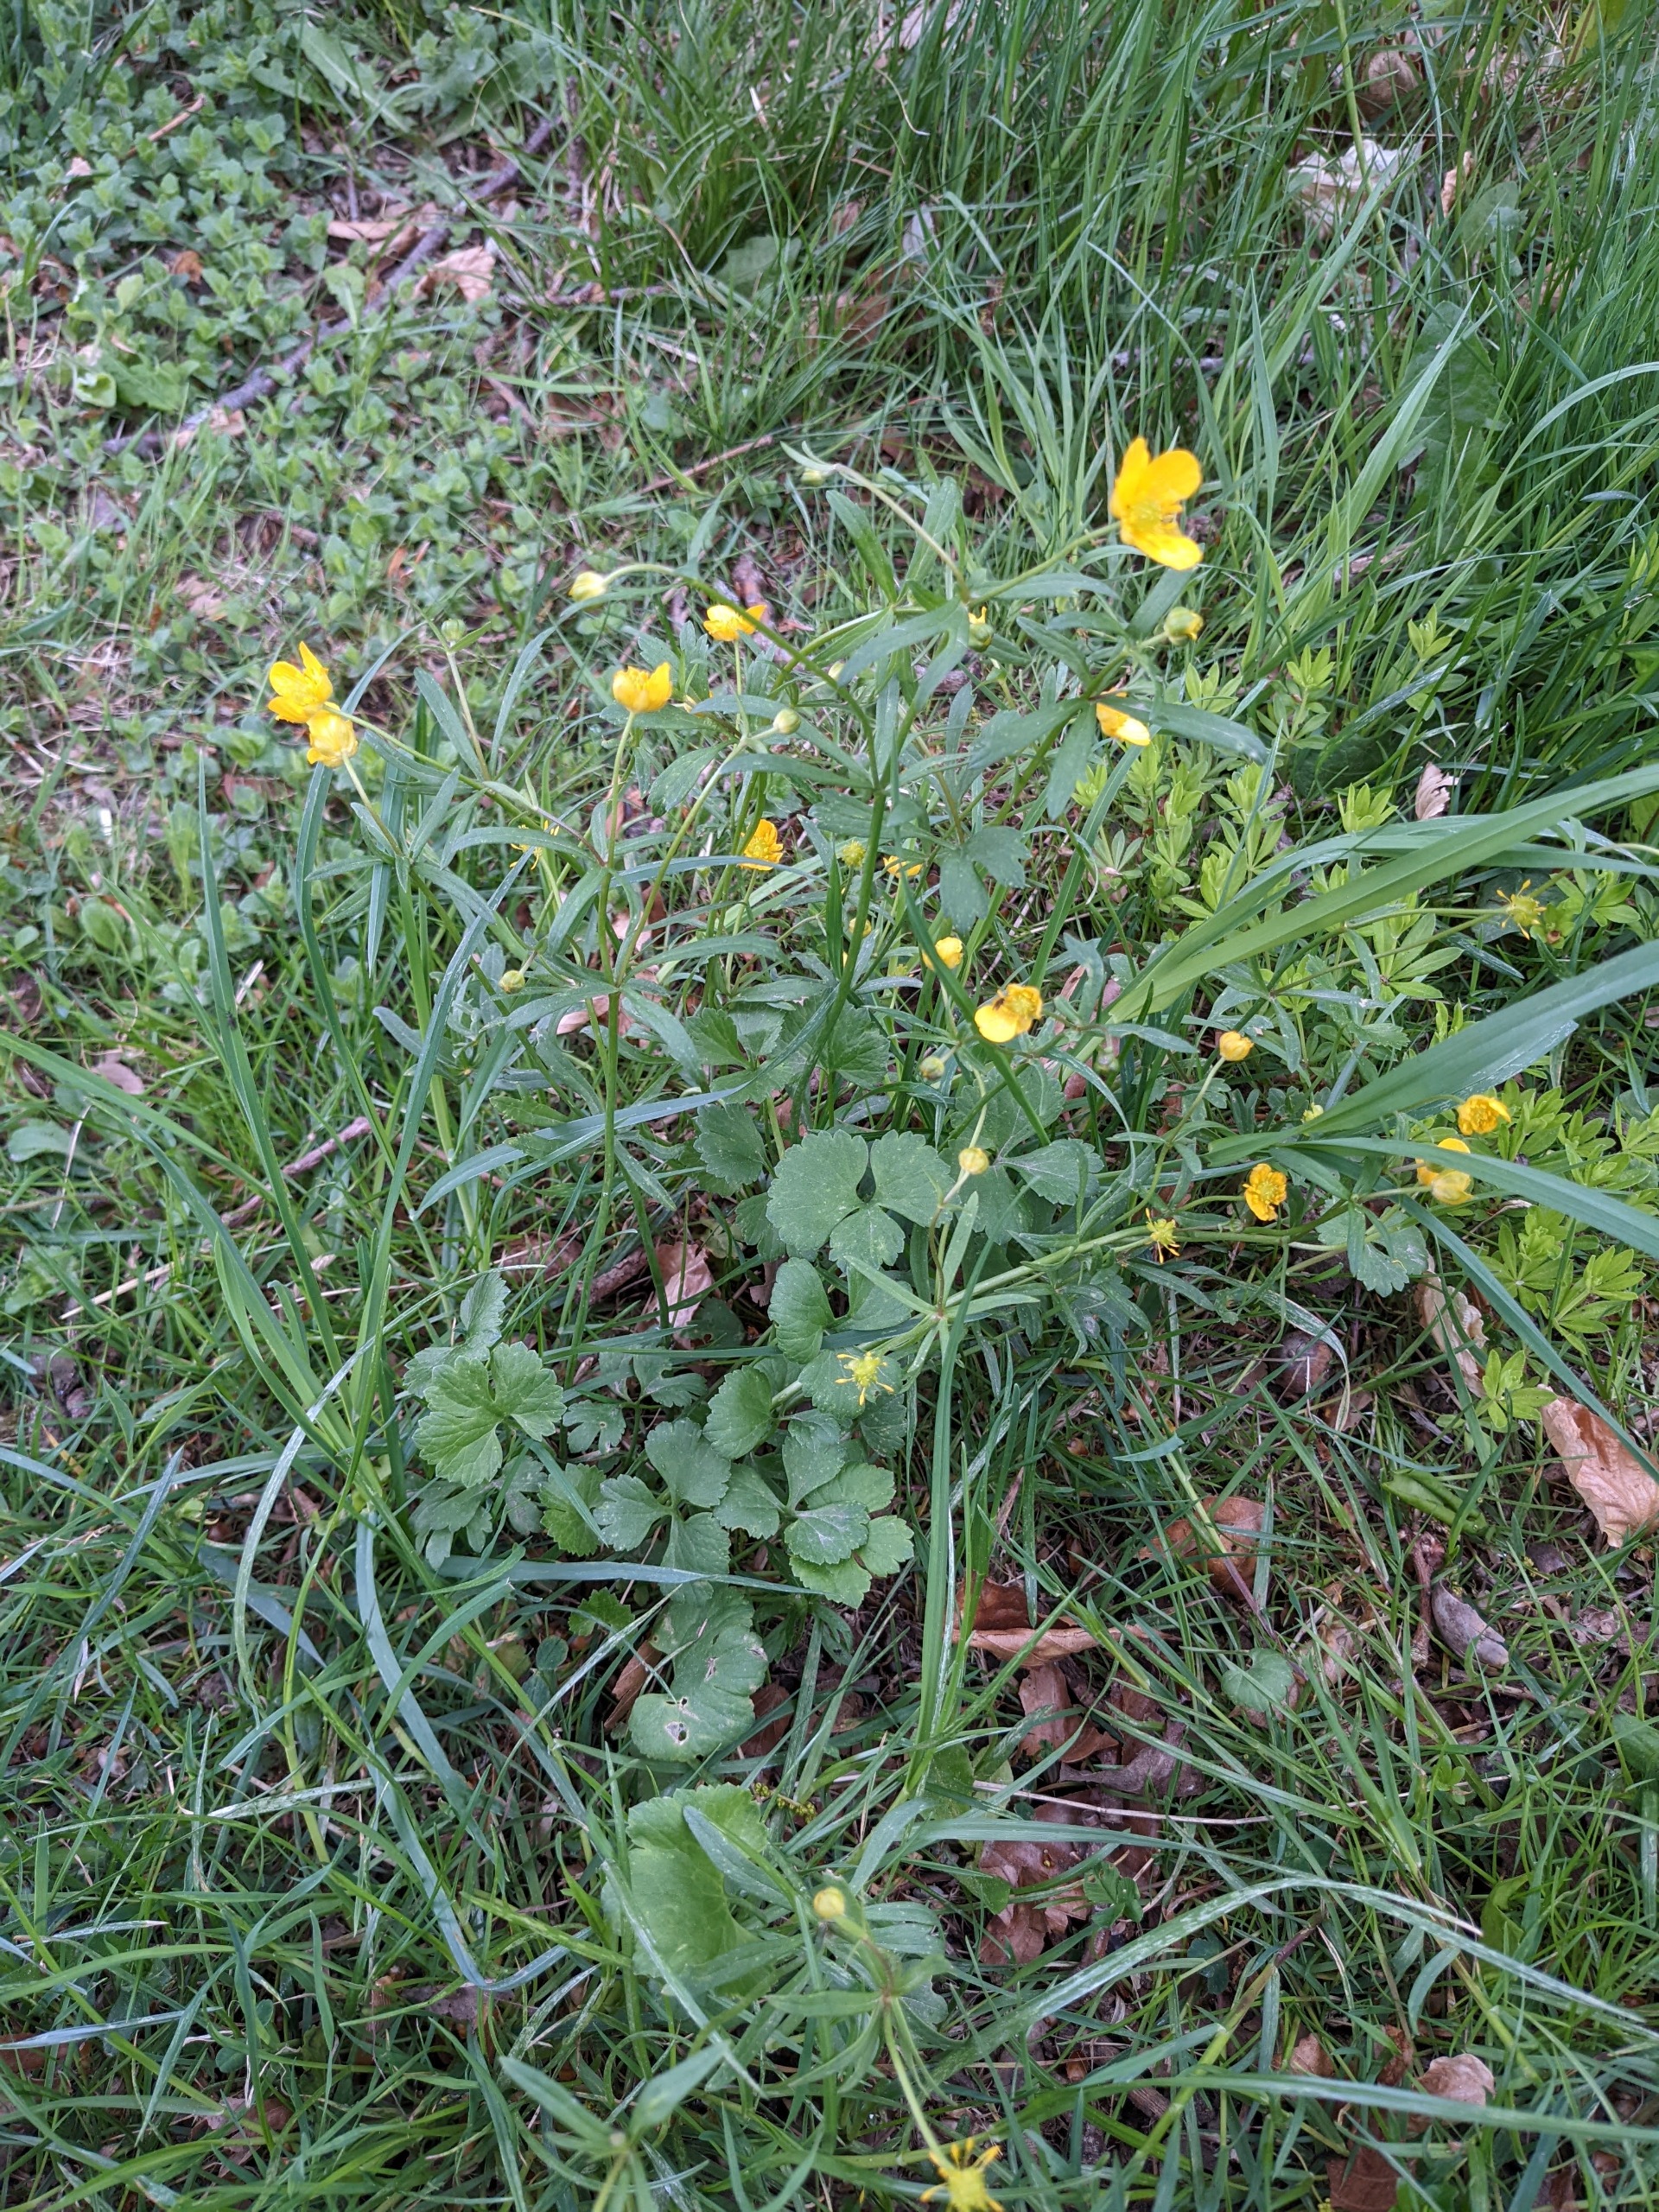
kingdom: Plantae
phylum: Tracheophyta
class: Magnoliopsida
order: Ranunculales
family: Ranunculaceae
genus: Ranunculus
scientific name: Ranunculus auricomus
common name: Nyrebladet ranunkel
